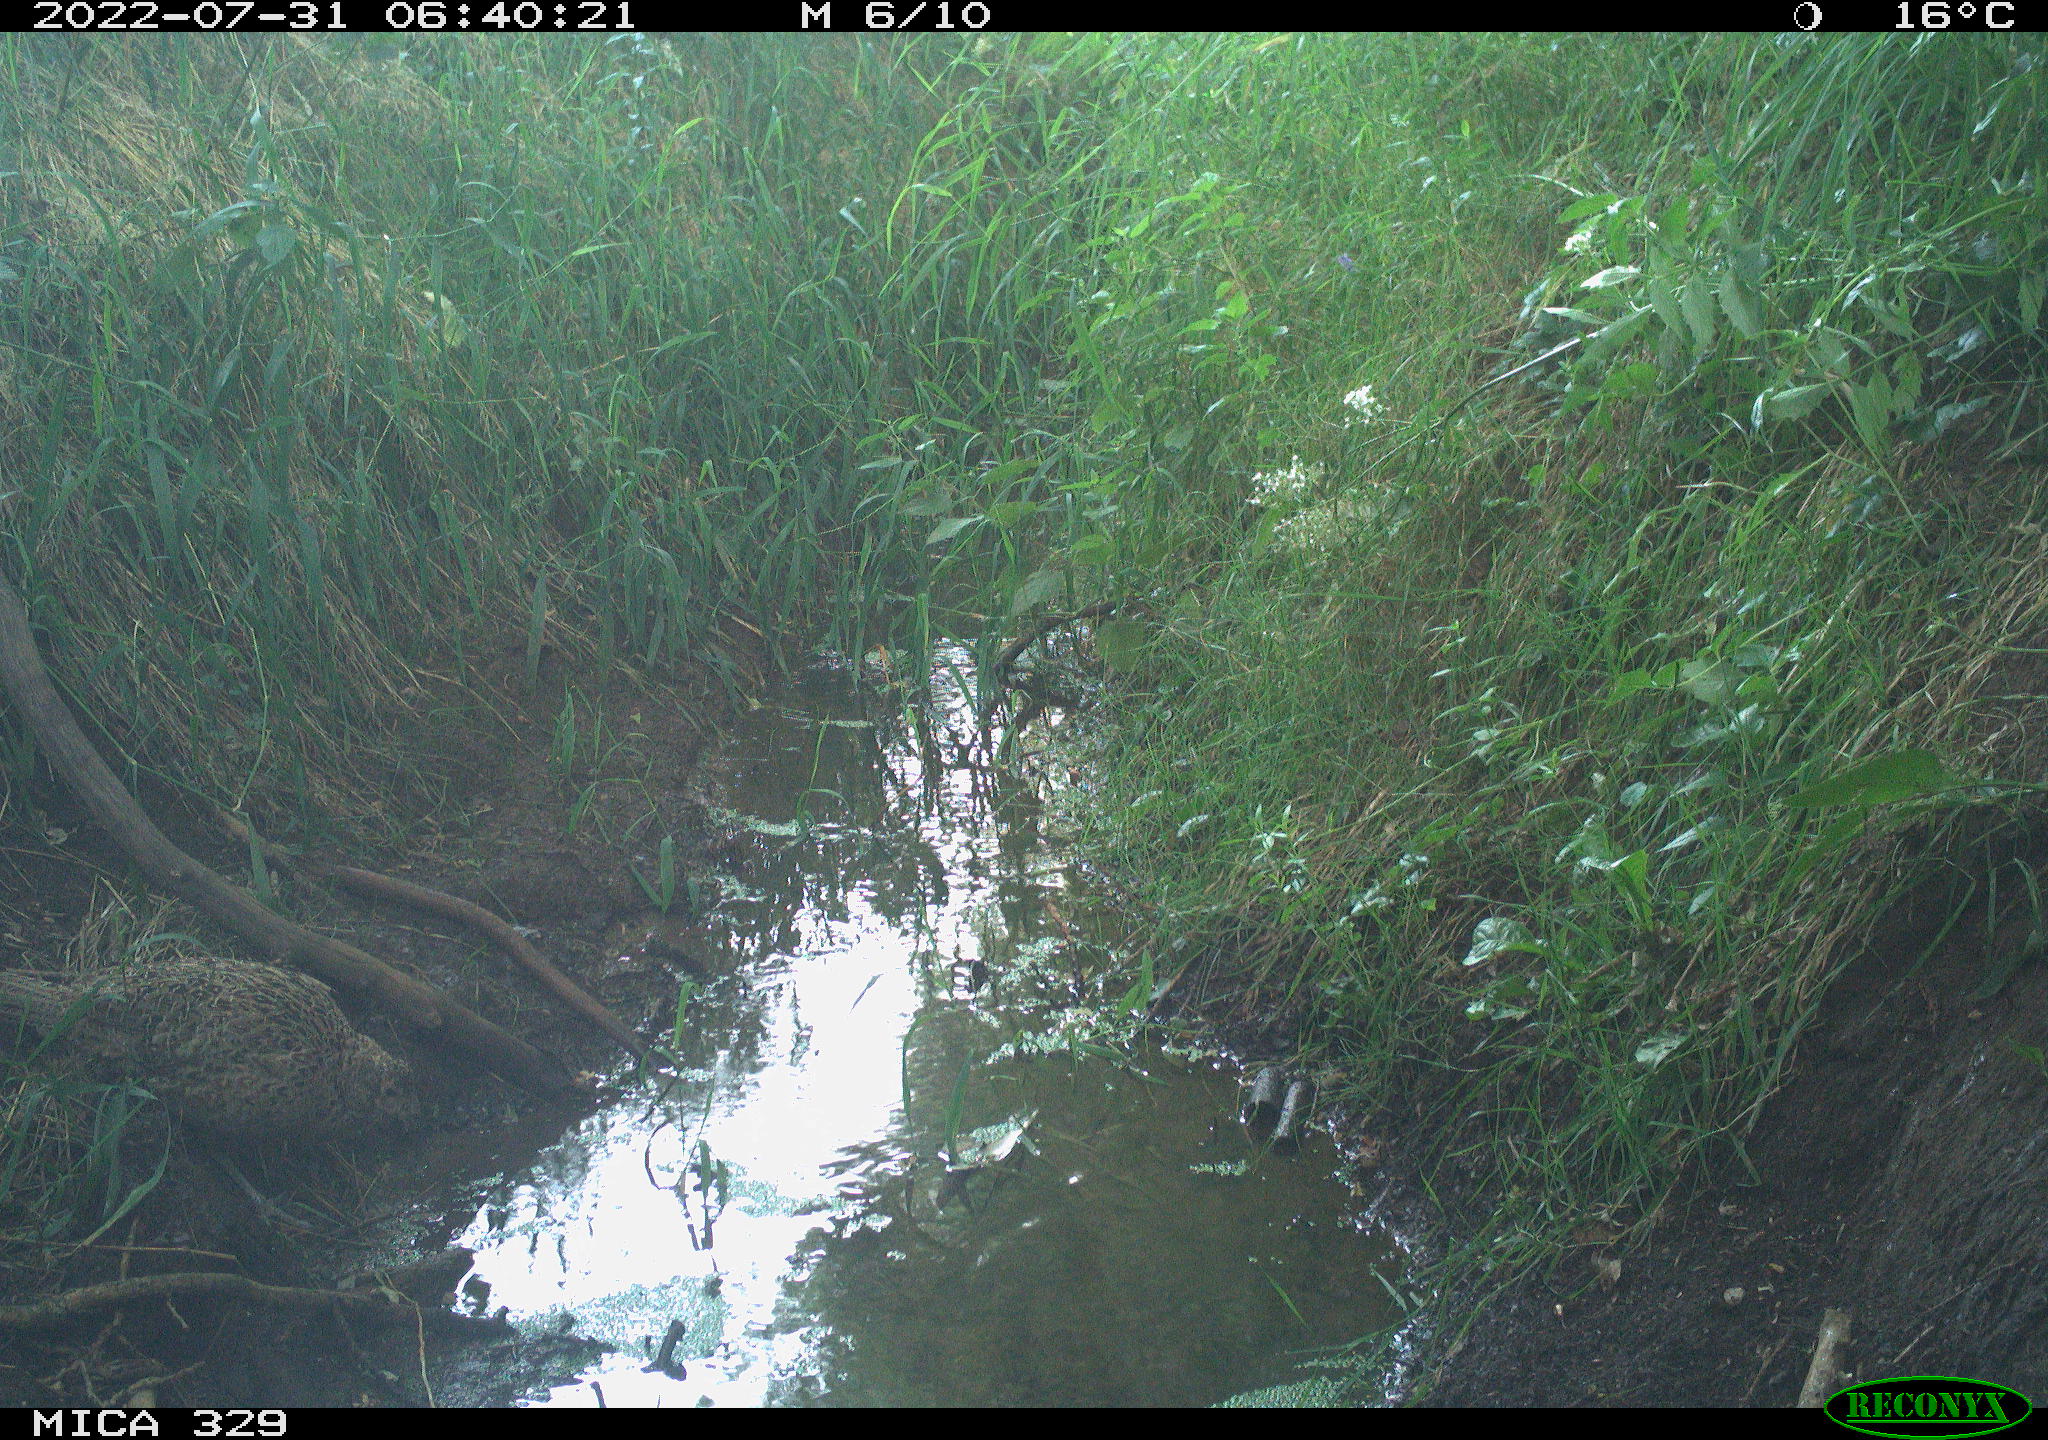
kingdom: Animalia
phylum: Chordata
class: Aves
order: Galliformes
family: Phasianidae
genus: Phasianus
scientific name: Phasianus colchicus
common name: Common pheasant
